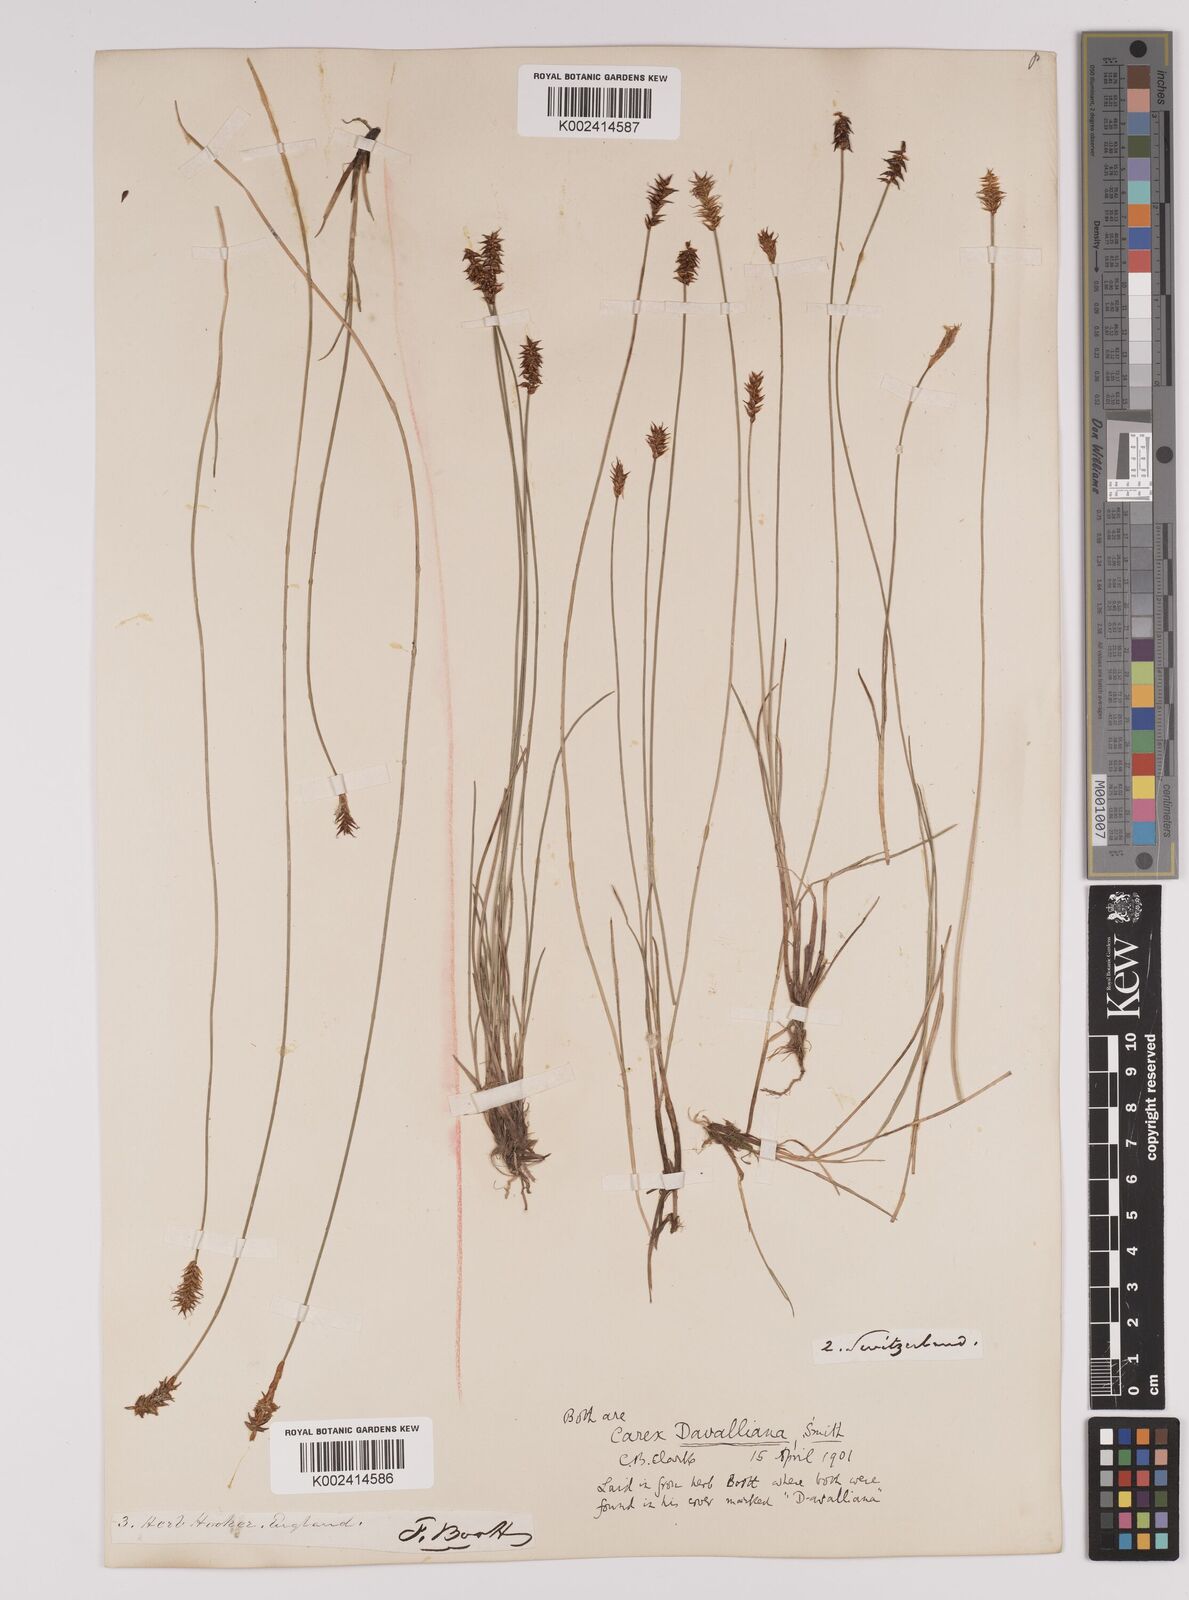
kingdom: Plantae
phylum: Tracheophyta
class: Liliopsida
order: Poales
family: Cyperaceae
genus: Carex
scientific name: Carex davalliana
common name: Davall's sedge
